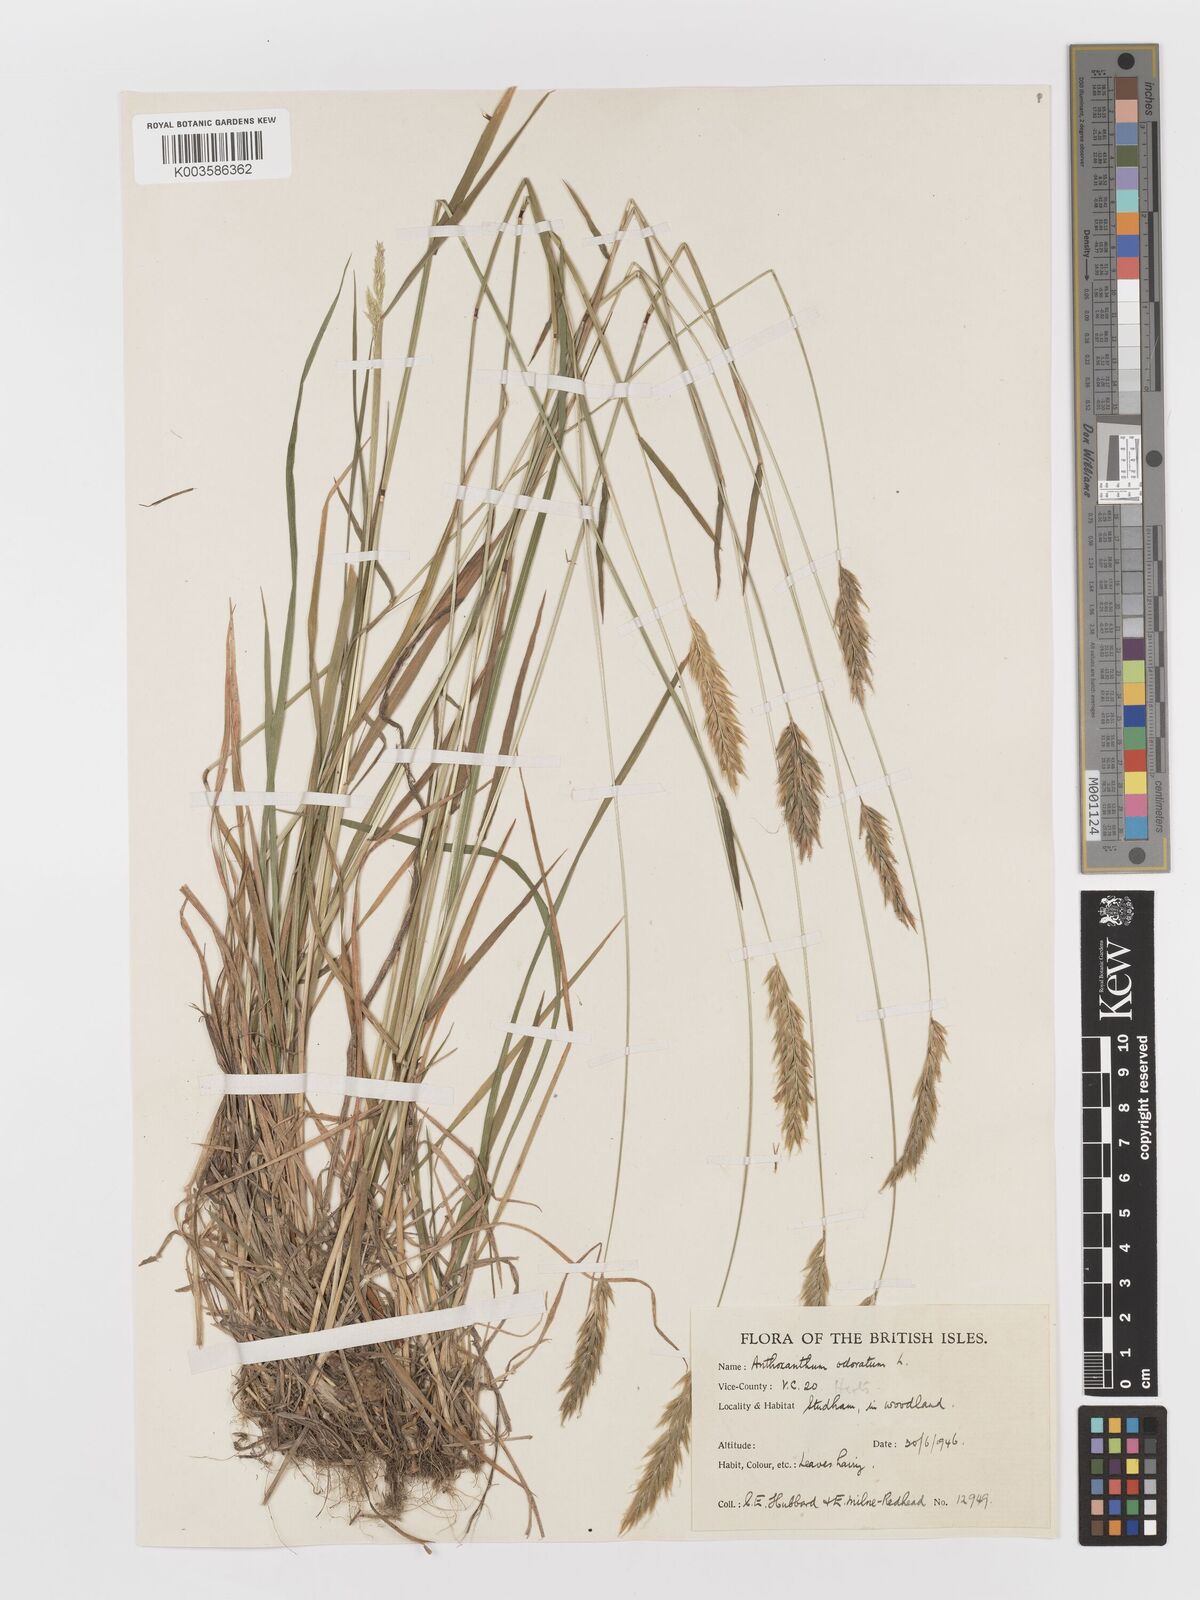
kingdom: Plantae
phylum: Tracheophyta
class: Liliopsida
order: Poales
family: Poaceae
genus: Anthoxanthum
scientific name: Anthoxanthum odoratum
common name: Sweet vernalgrass
